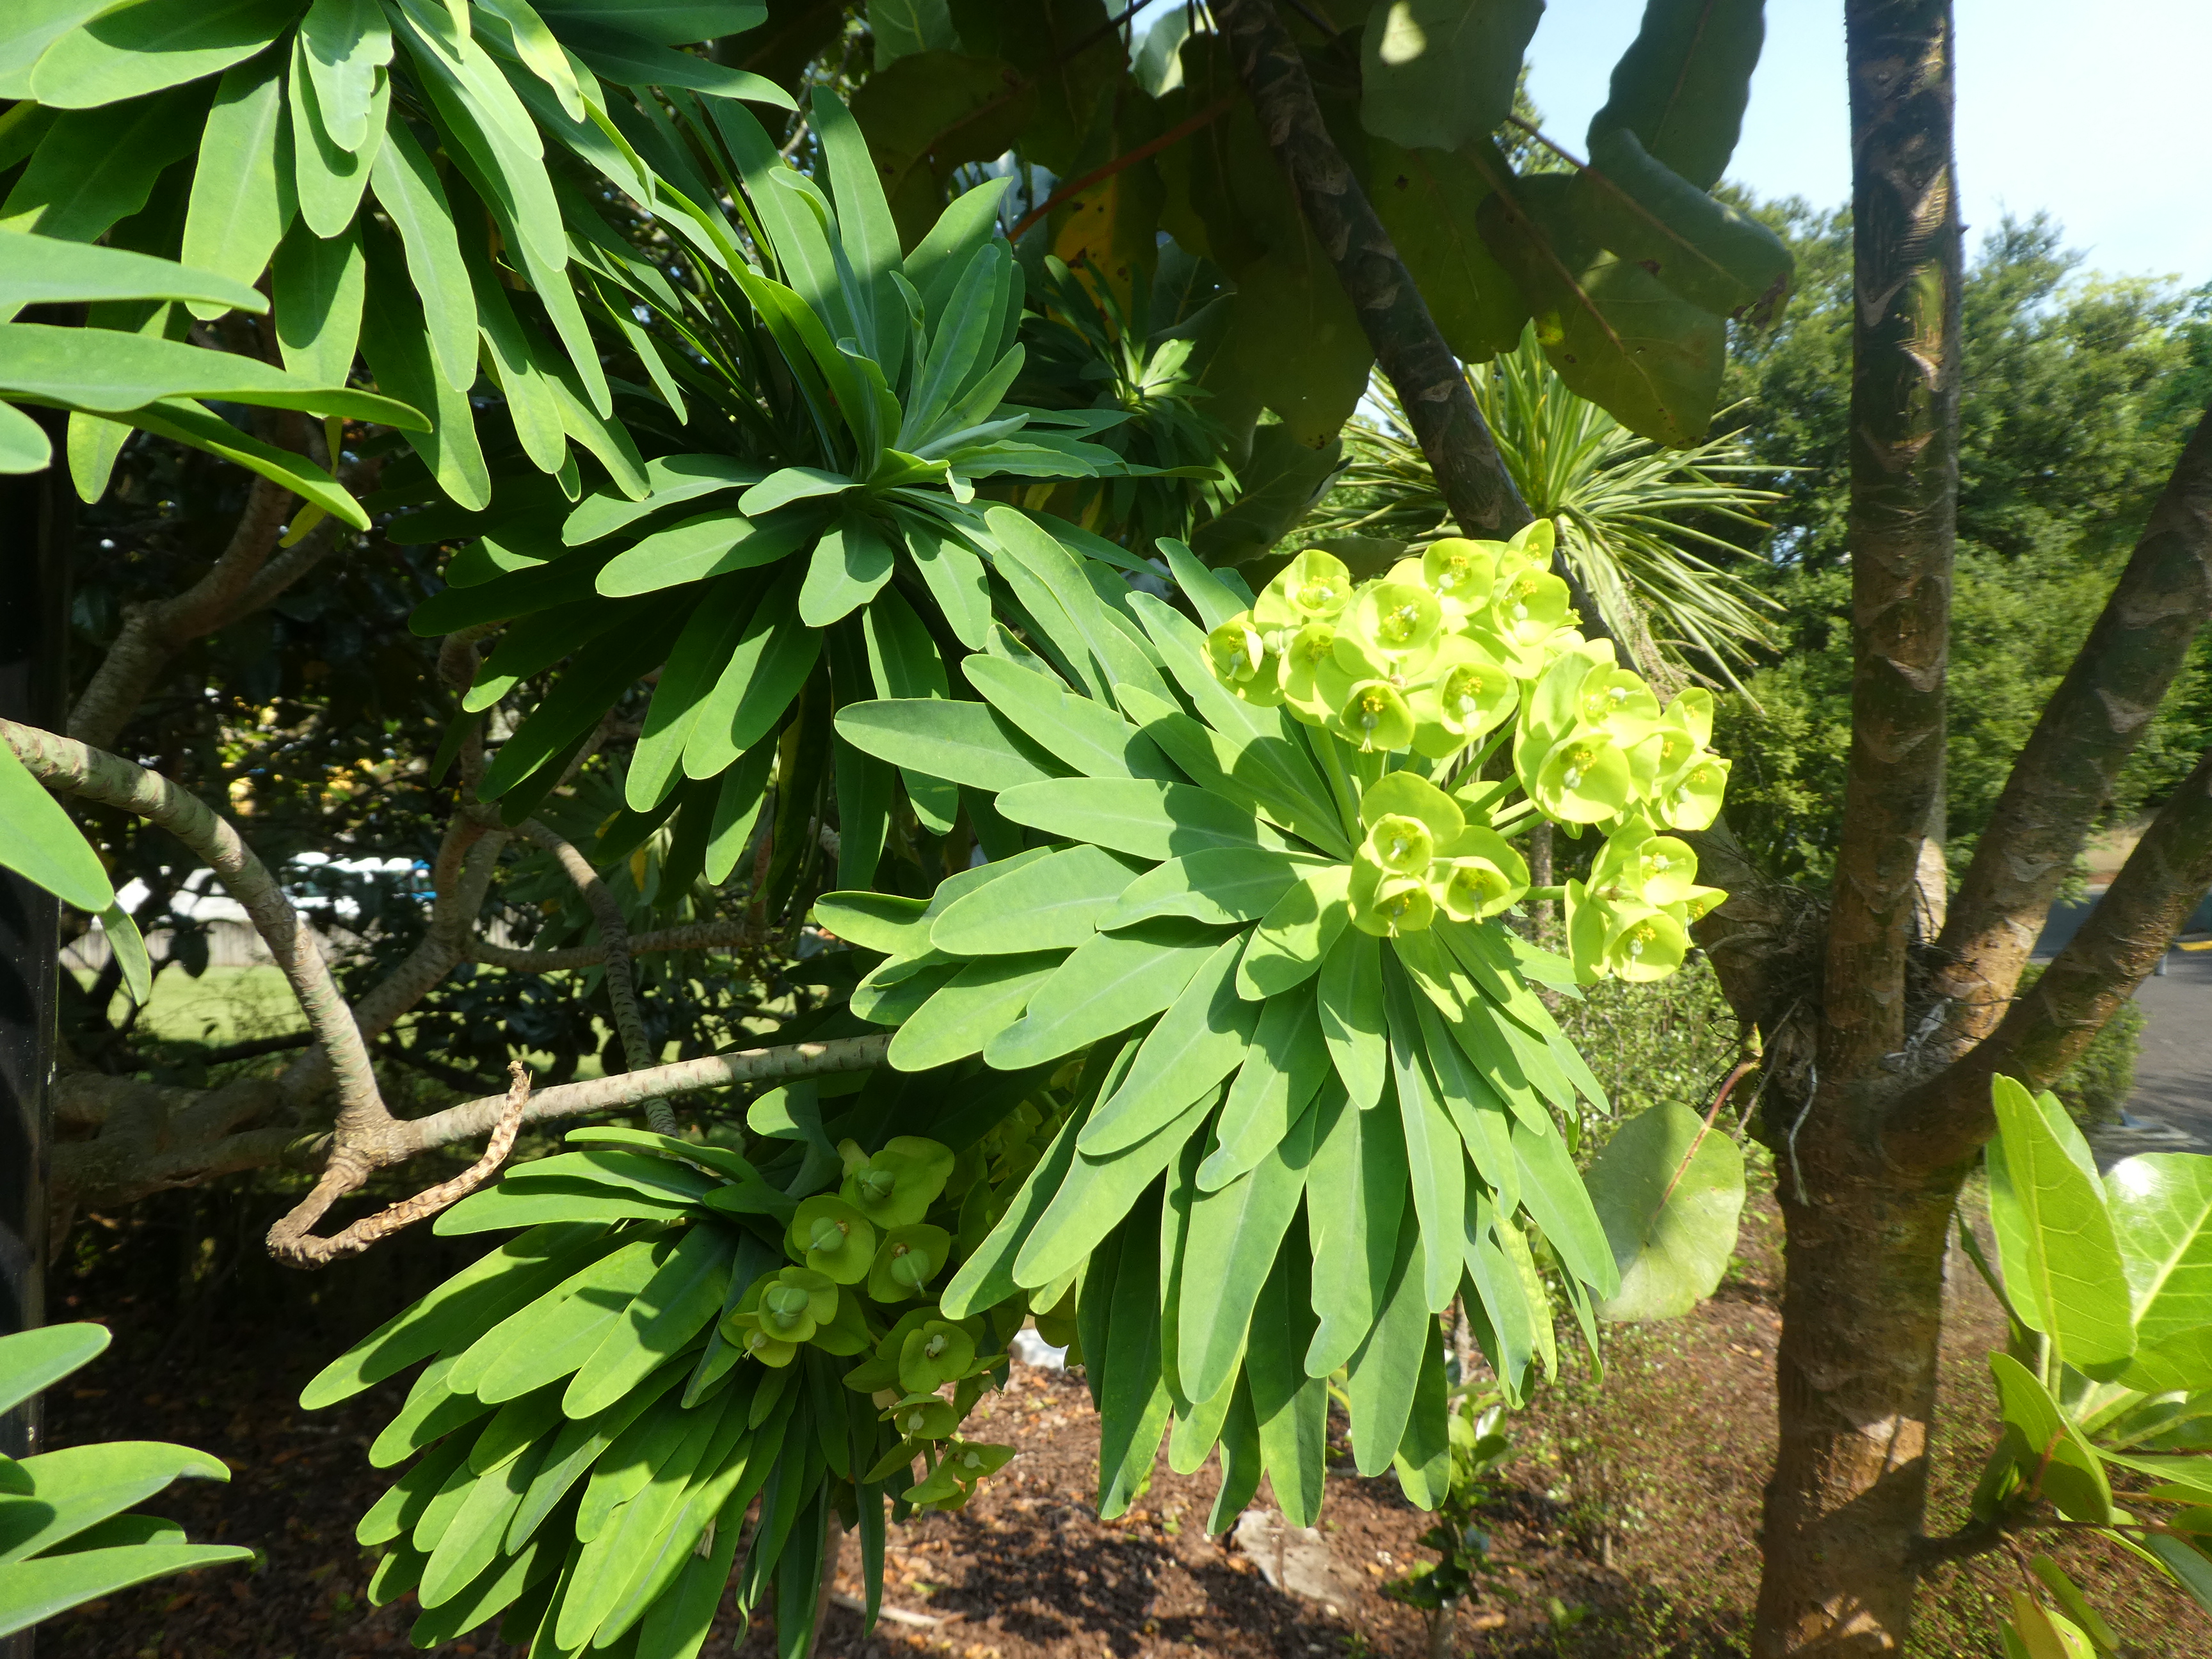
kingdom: Plantae
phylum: Tracheophyta
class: Magnoliopsida
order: Malpighiales
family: Euphorbiaceae
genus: Euphorbia
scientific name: Euphorbia bourgaeana
